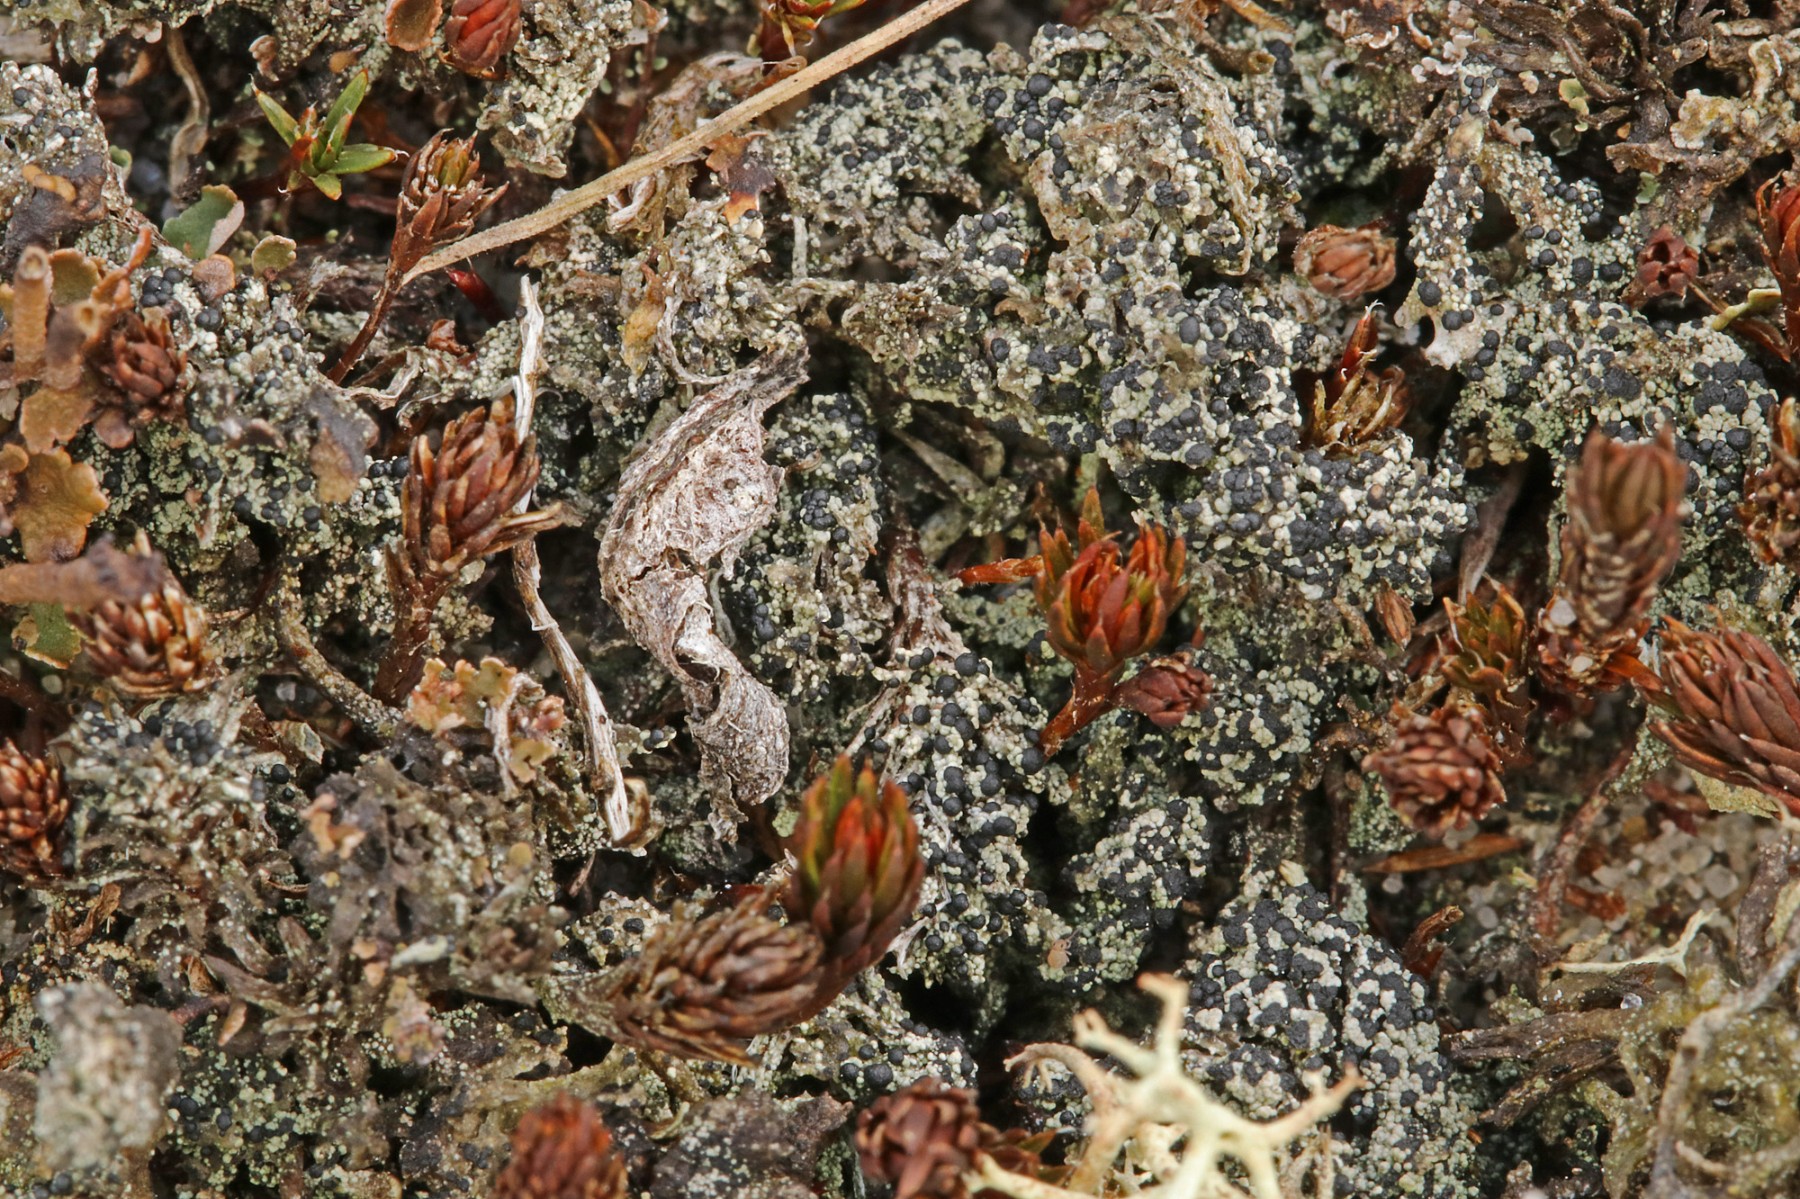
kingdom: Fungi
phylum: Ascomycota
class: Lecanoromycetes
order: Lecanorales
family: Byssolomataceae
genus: Micarea
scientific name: Micarea lignaria
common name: tørve-knaplav
